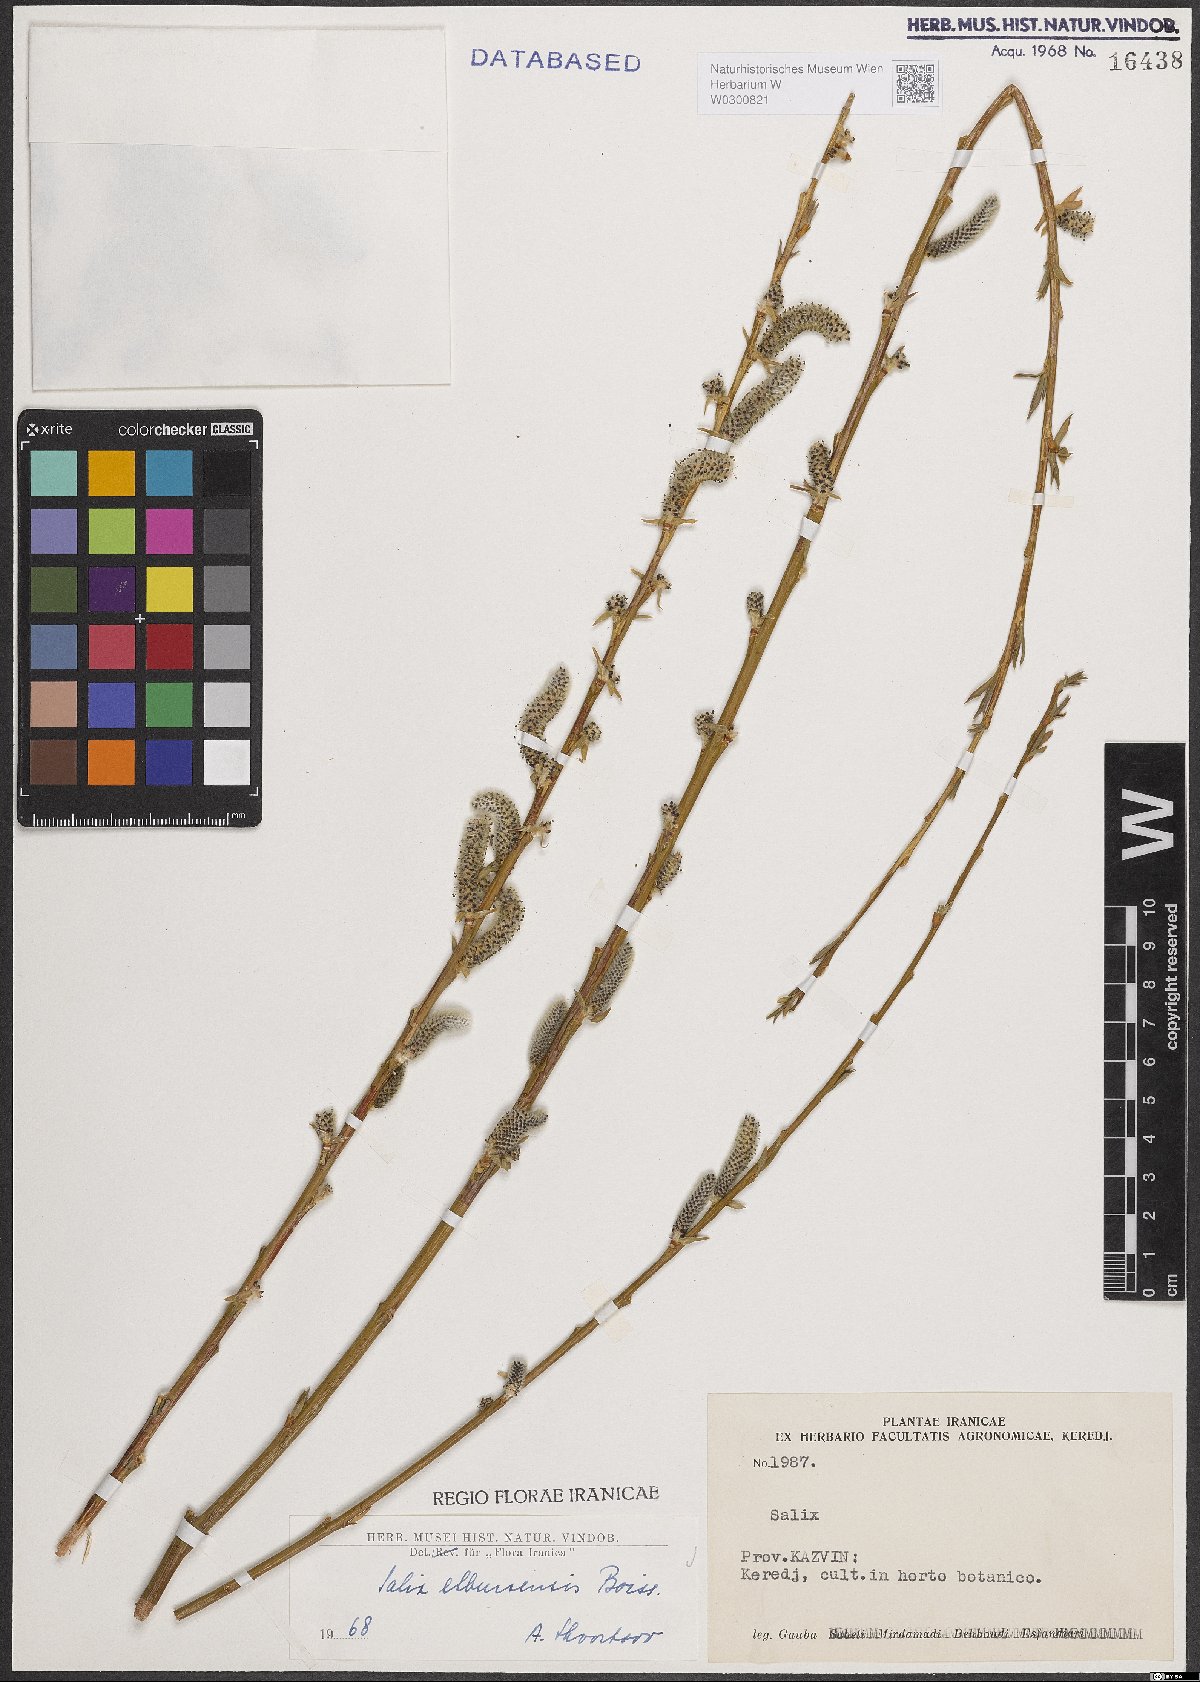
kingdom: Plantae
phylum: Tracheophyta
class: Magnoliopsida
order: Malpighiales
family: Salicaceae
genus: Salix
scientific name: Salix elbursensis
